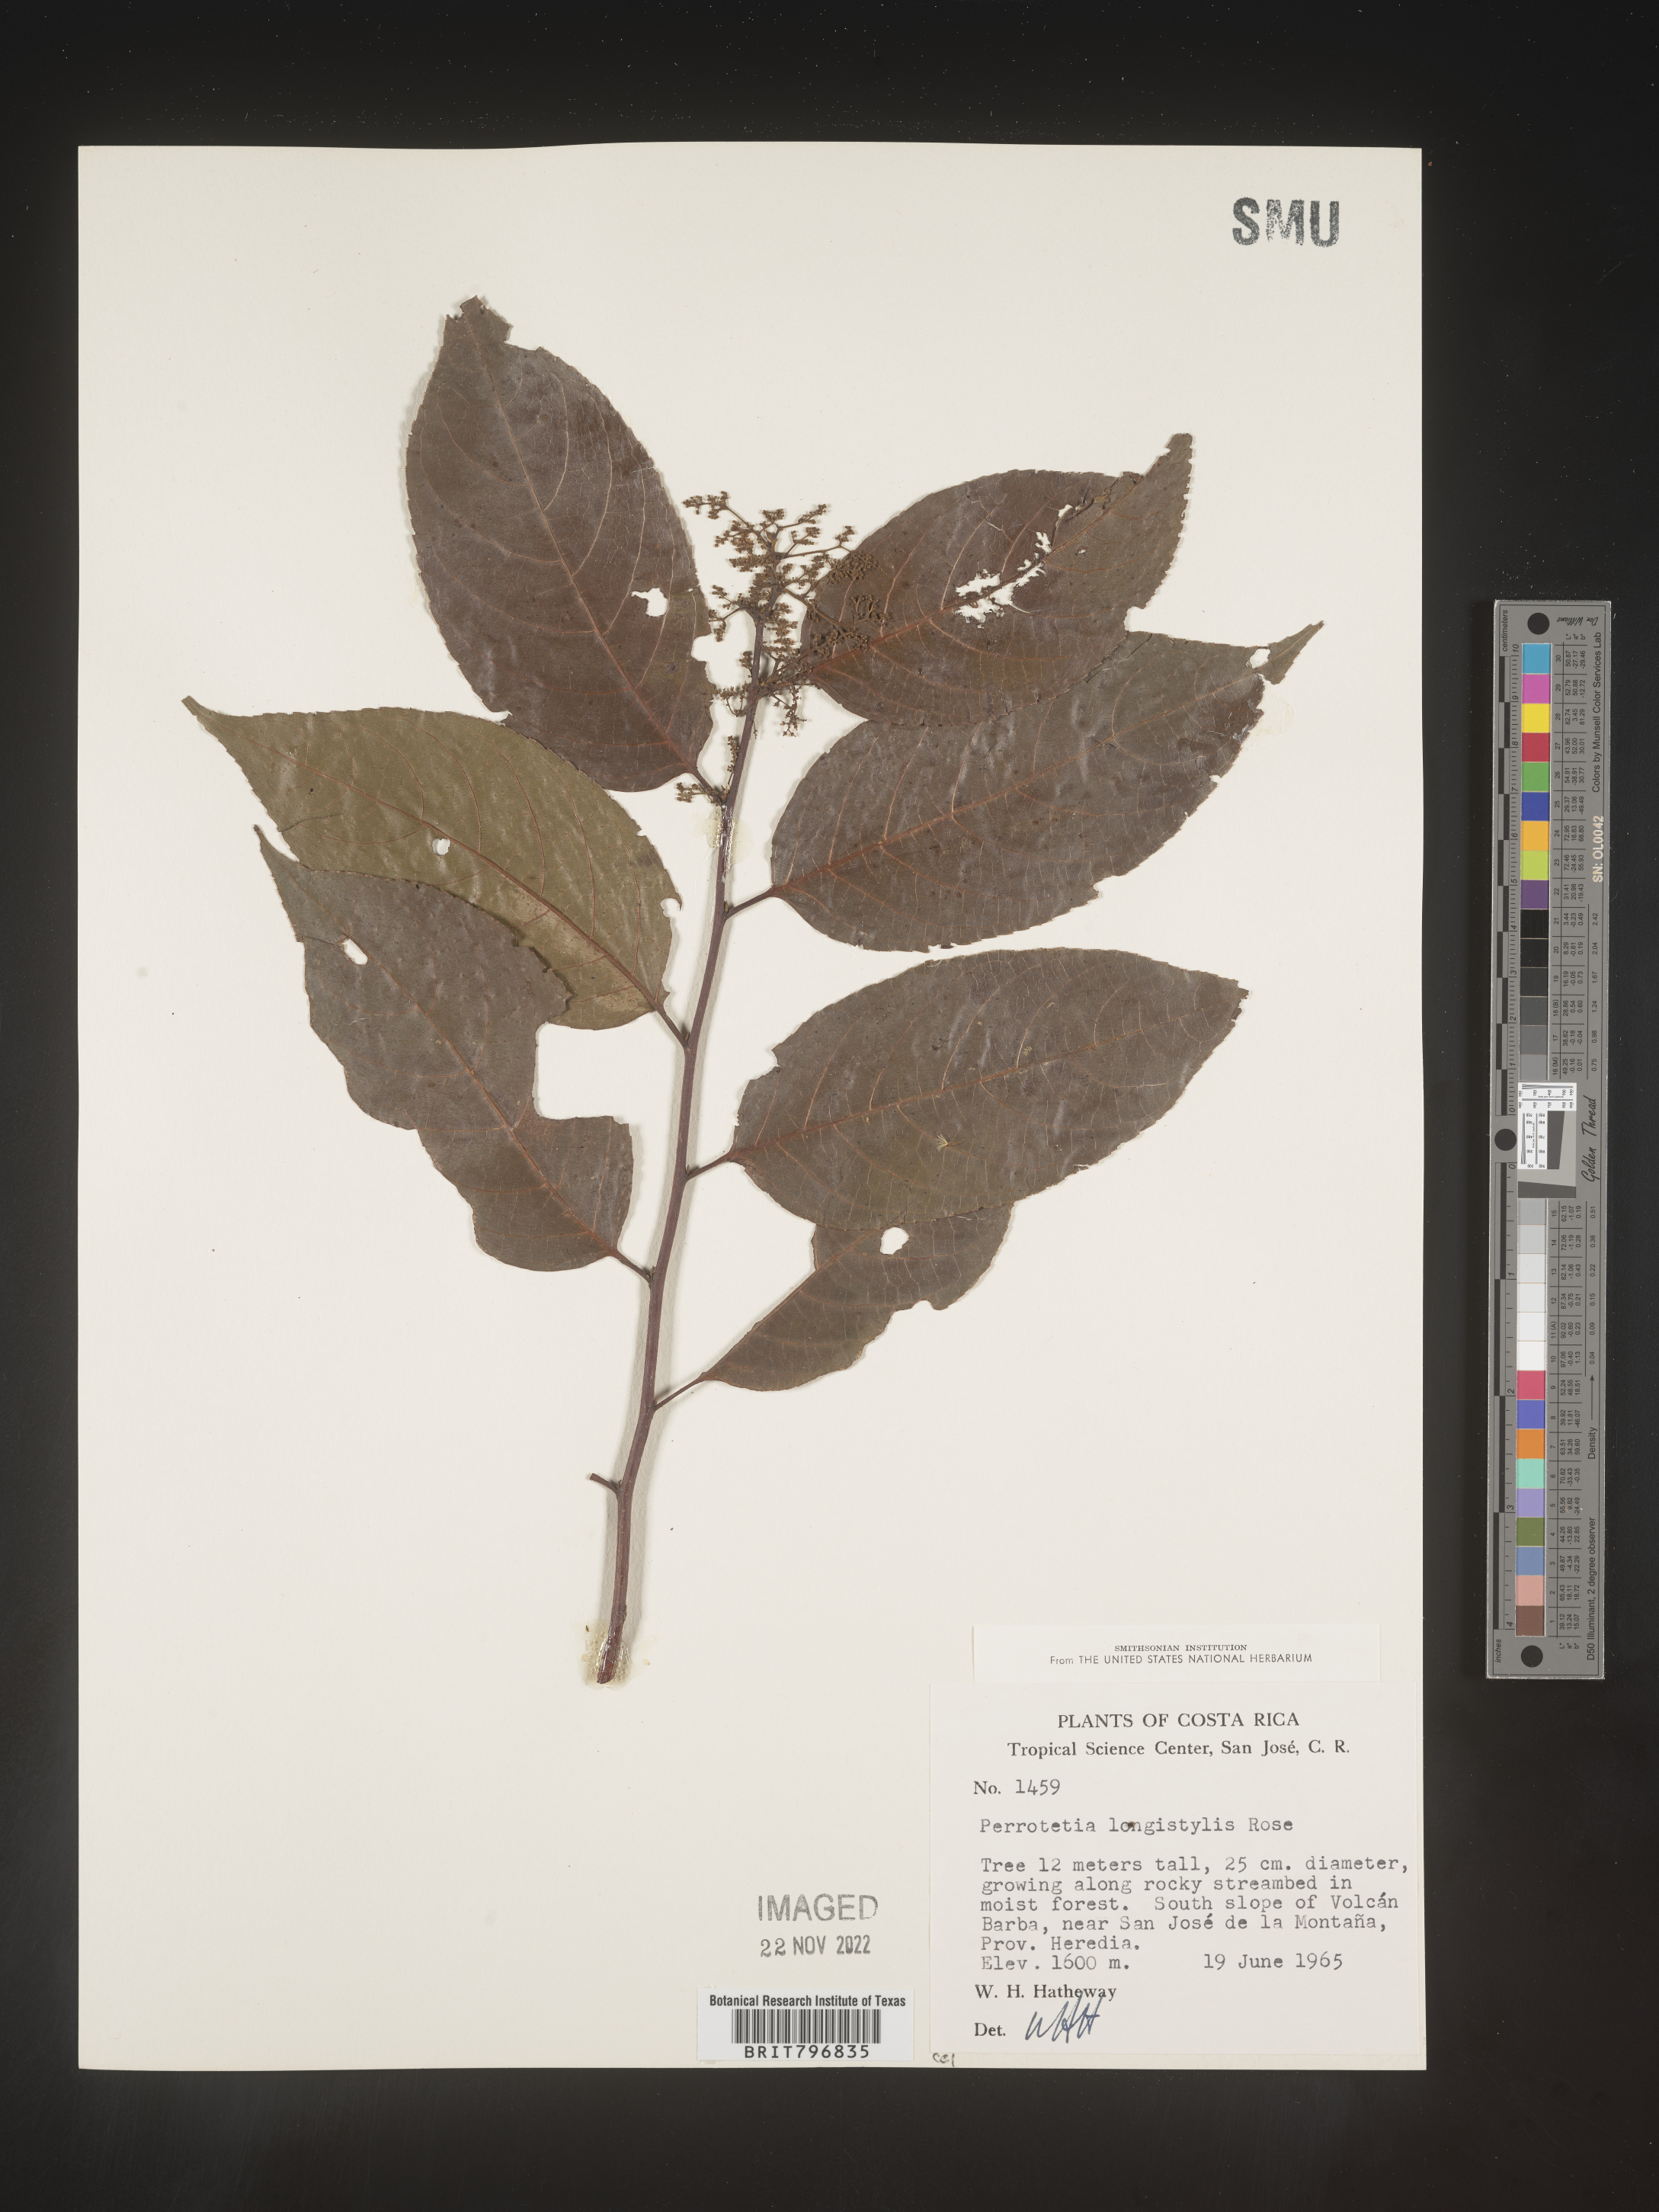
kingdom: Plantae
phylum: Tracheophyta
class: Magnoliopsida
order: Huerteales
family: Dipentodontaceae
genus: Perrottetia
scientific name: Perrottetia
